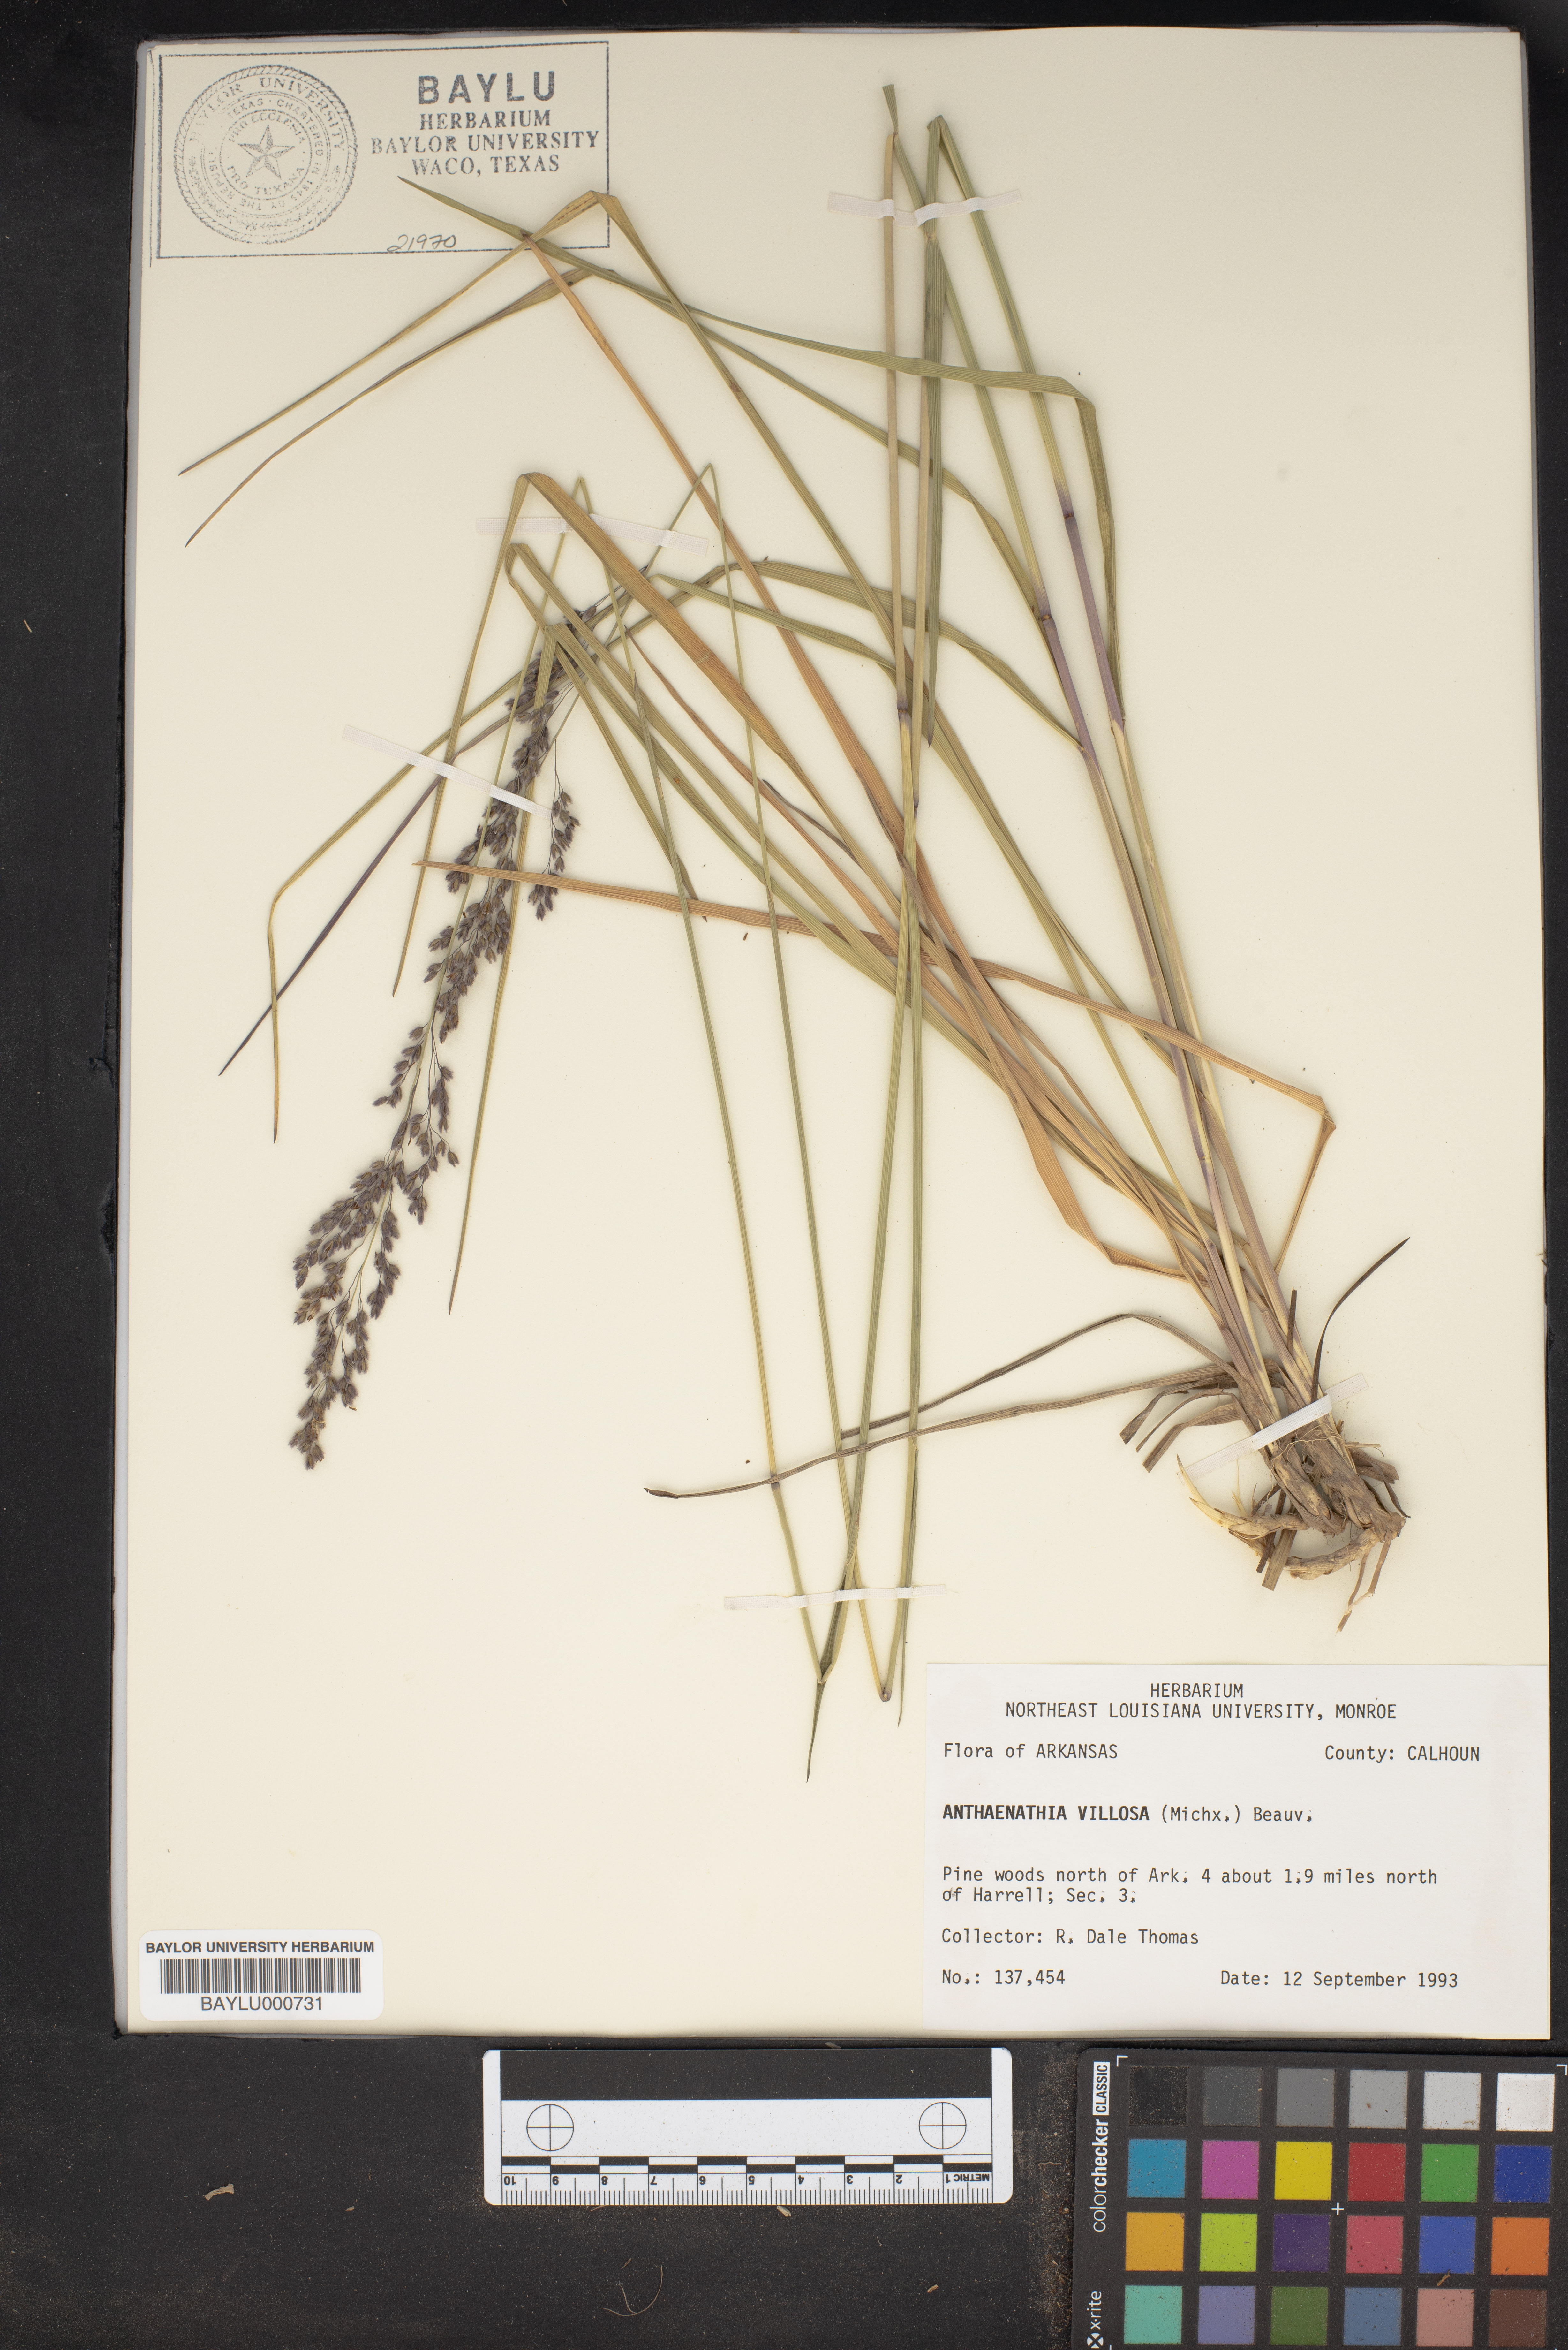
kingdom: Plantae
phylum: Tracheophyta
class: Liliopsida
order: Poales
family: Poaceae
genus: Anthenantia
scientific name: Anthenantia villosa
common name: Green silkyscale
